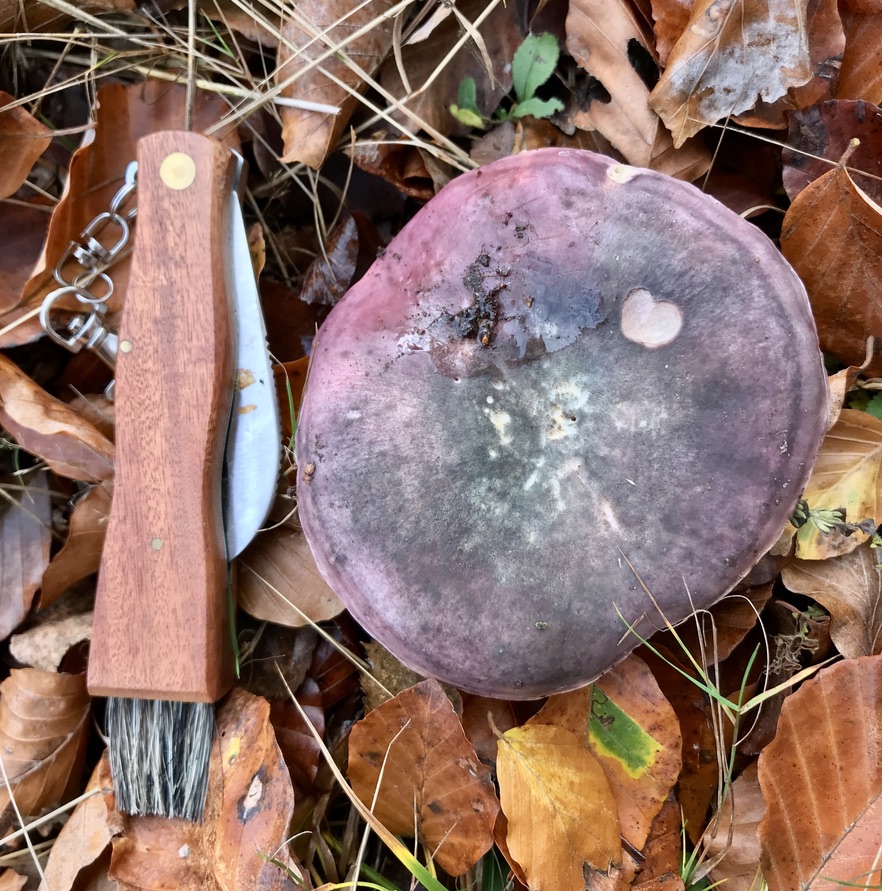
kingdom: Fungi
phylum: Basidiomycota
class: Agaricomycetes
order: Russulales
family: Russulaceae
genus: Russula
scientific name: Russula cyanoxantha
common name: broget skørhat
